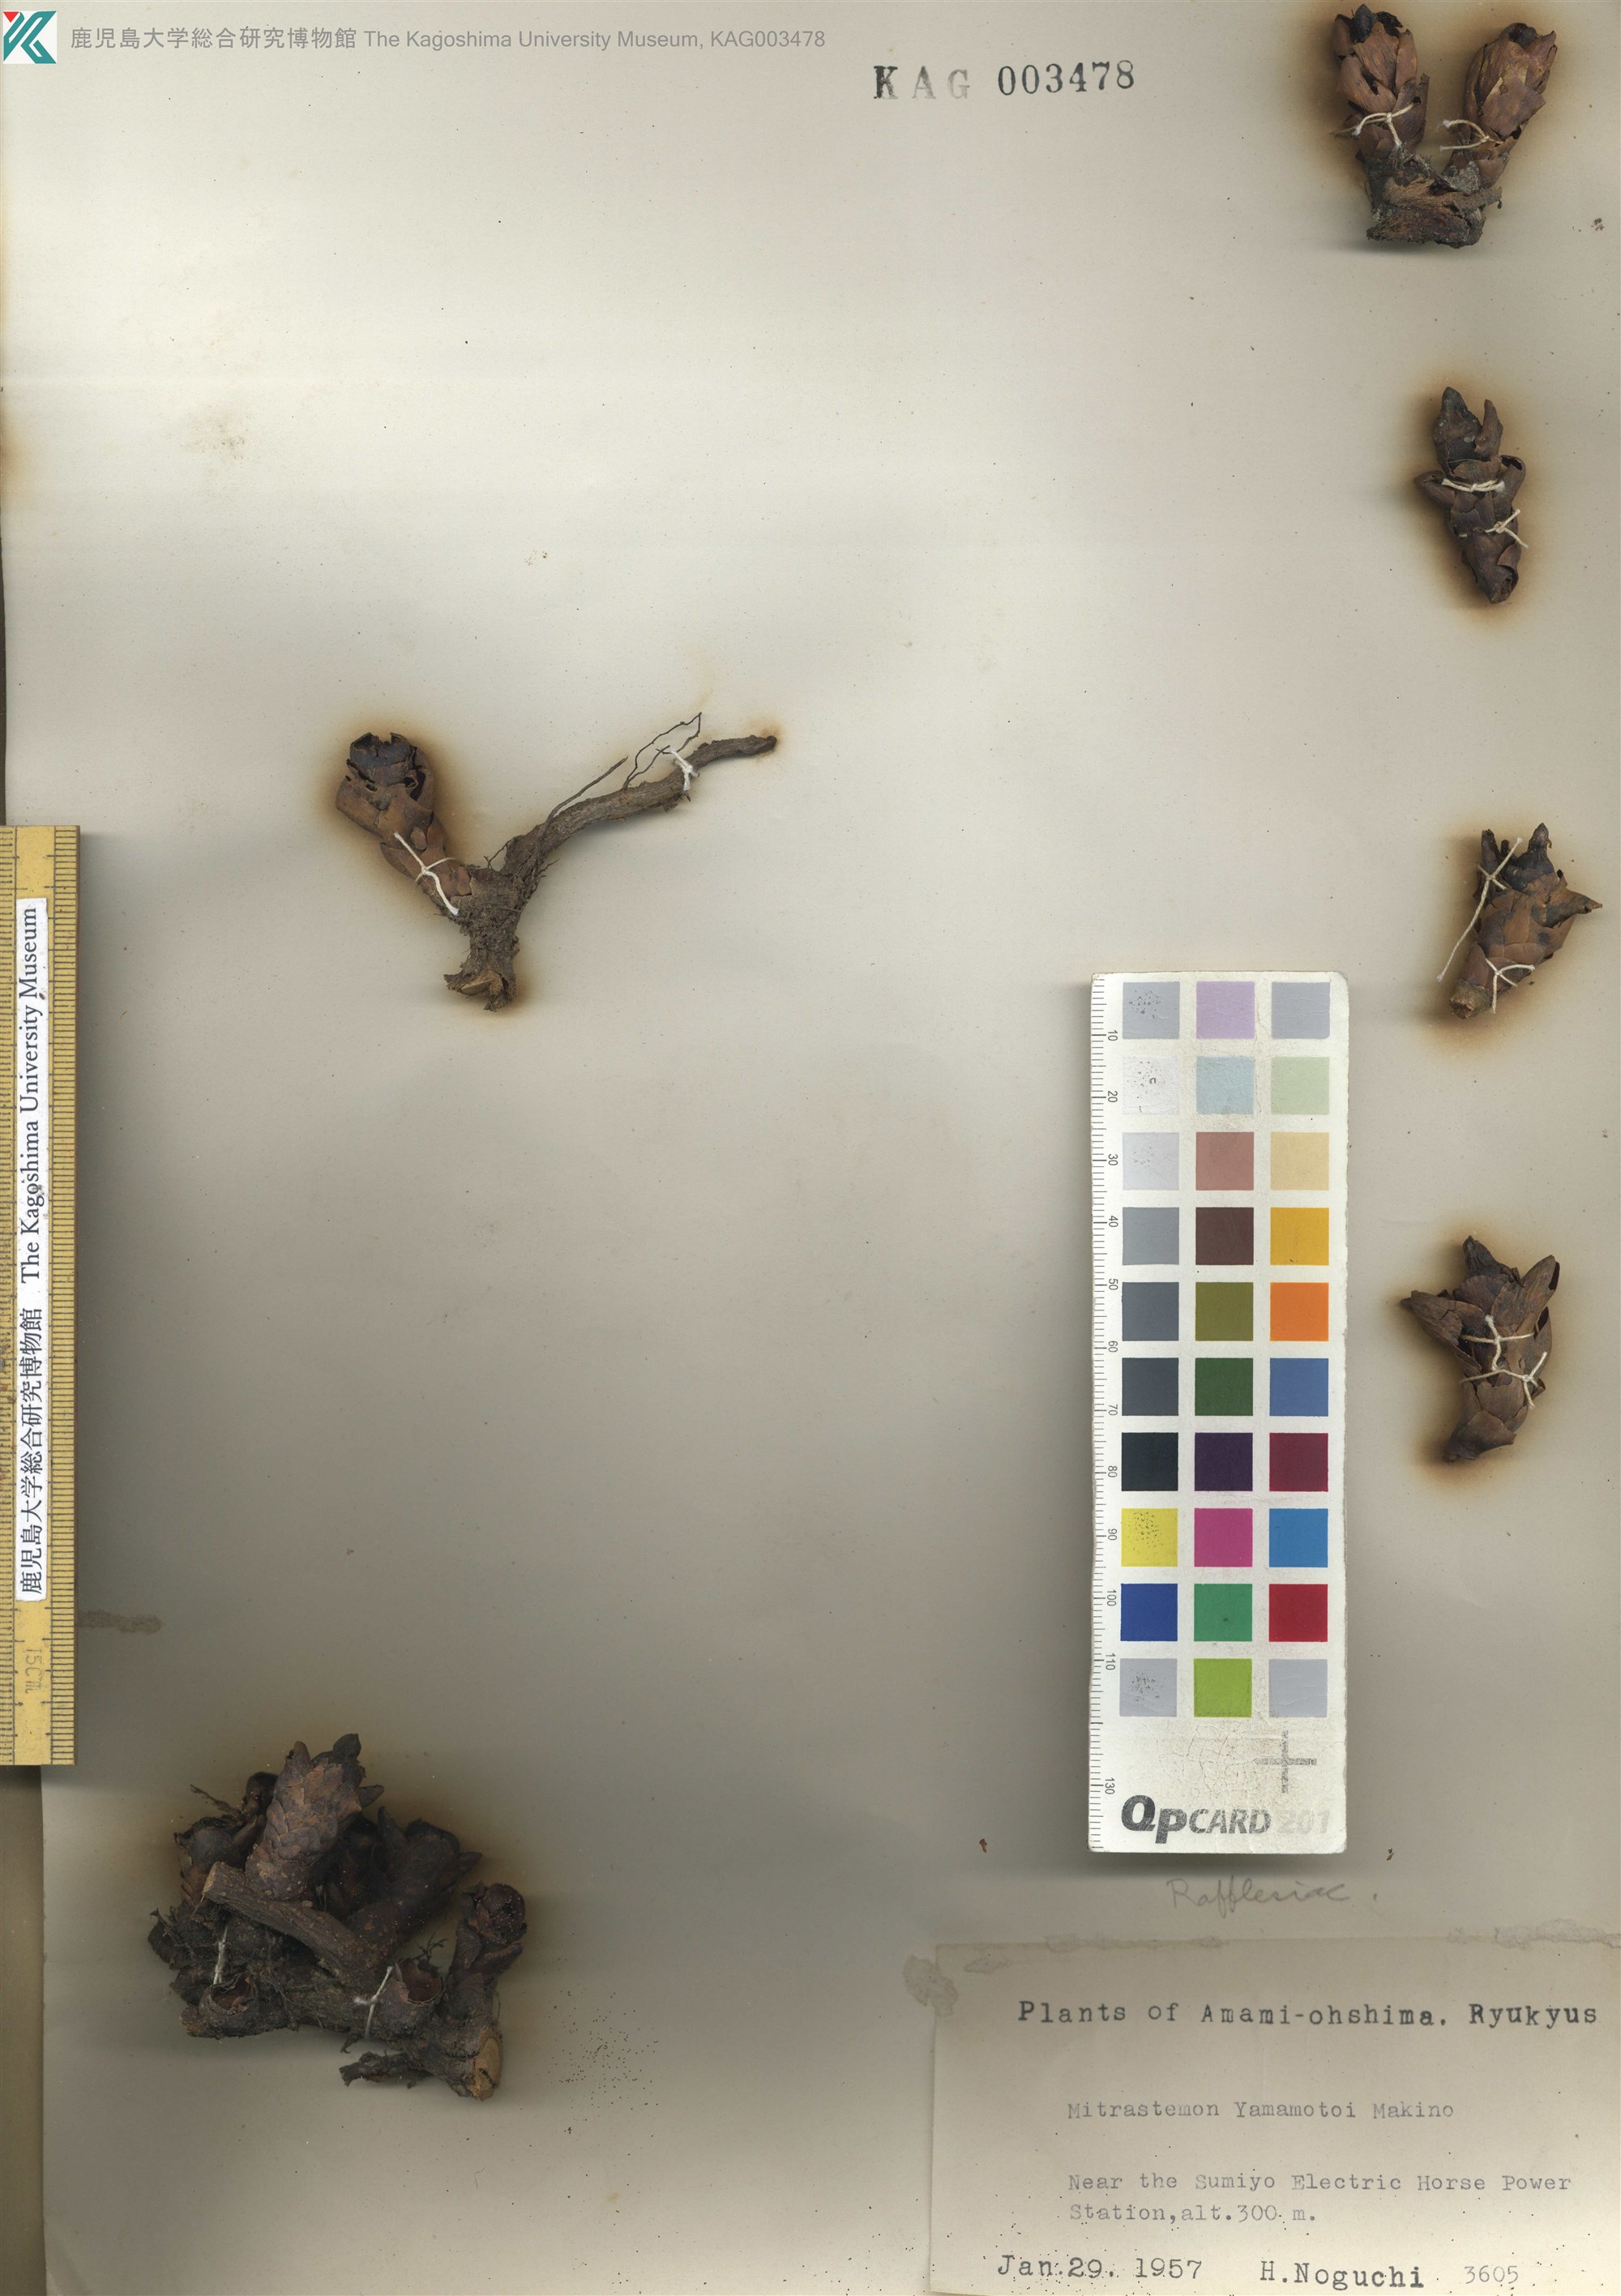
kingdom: Plantae
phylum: Tracheophyta
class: Magnoliopsida
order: Ericales
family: Mitrastemonaceae
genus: Mitrastemon
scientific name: Mitrastemon yamamotoi
